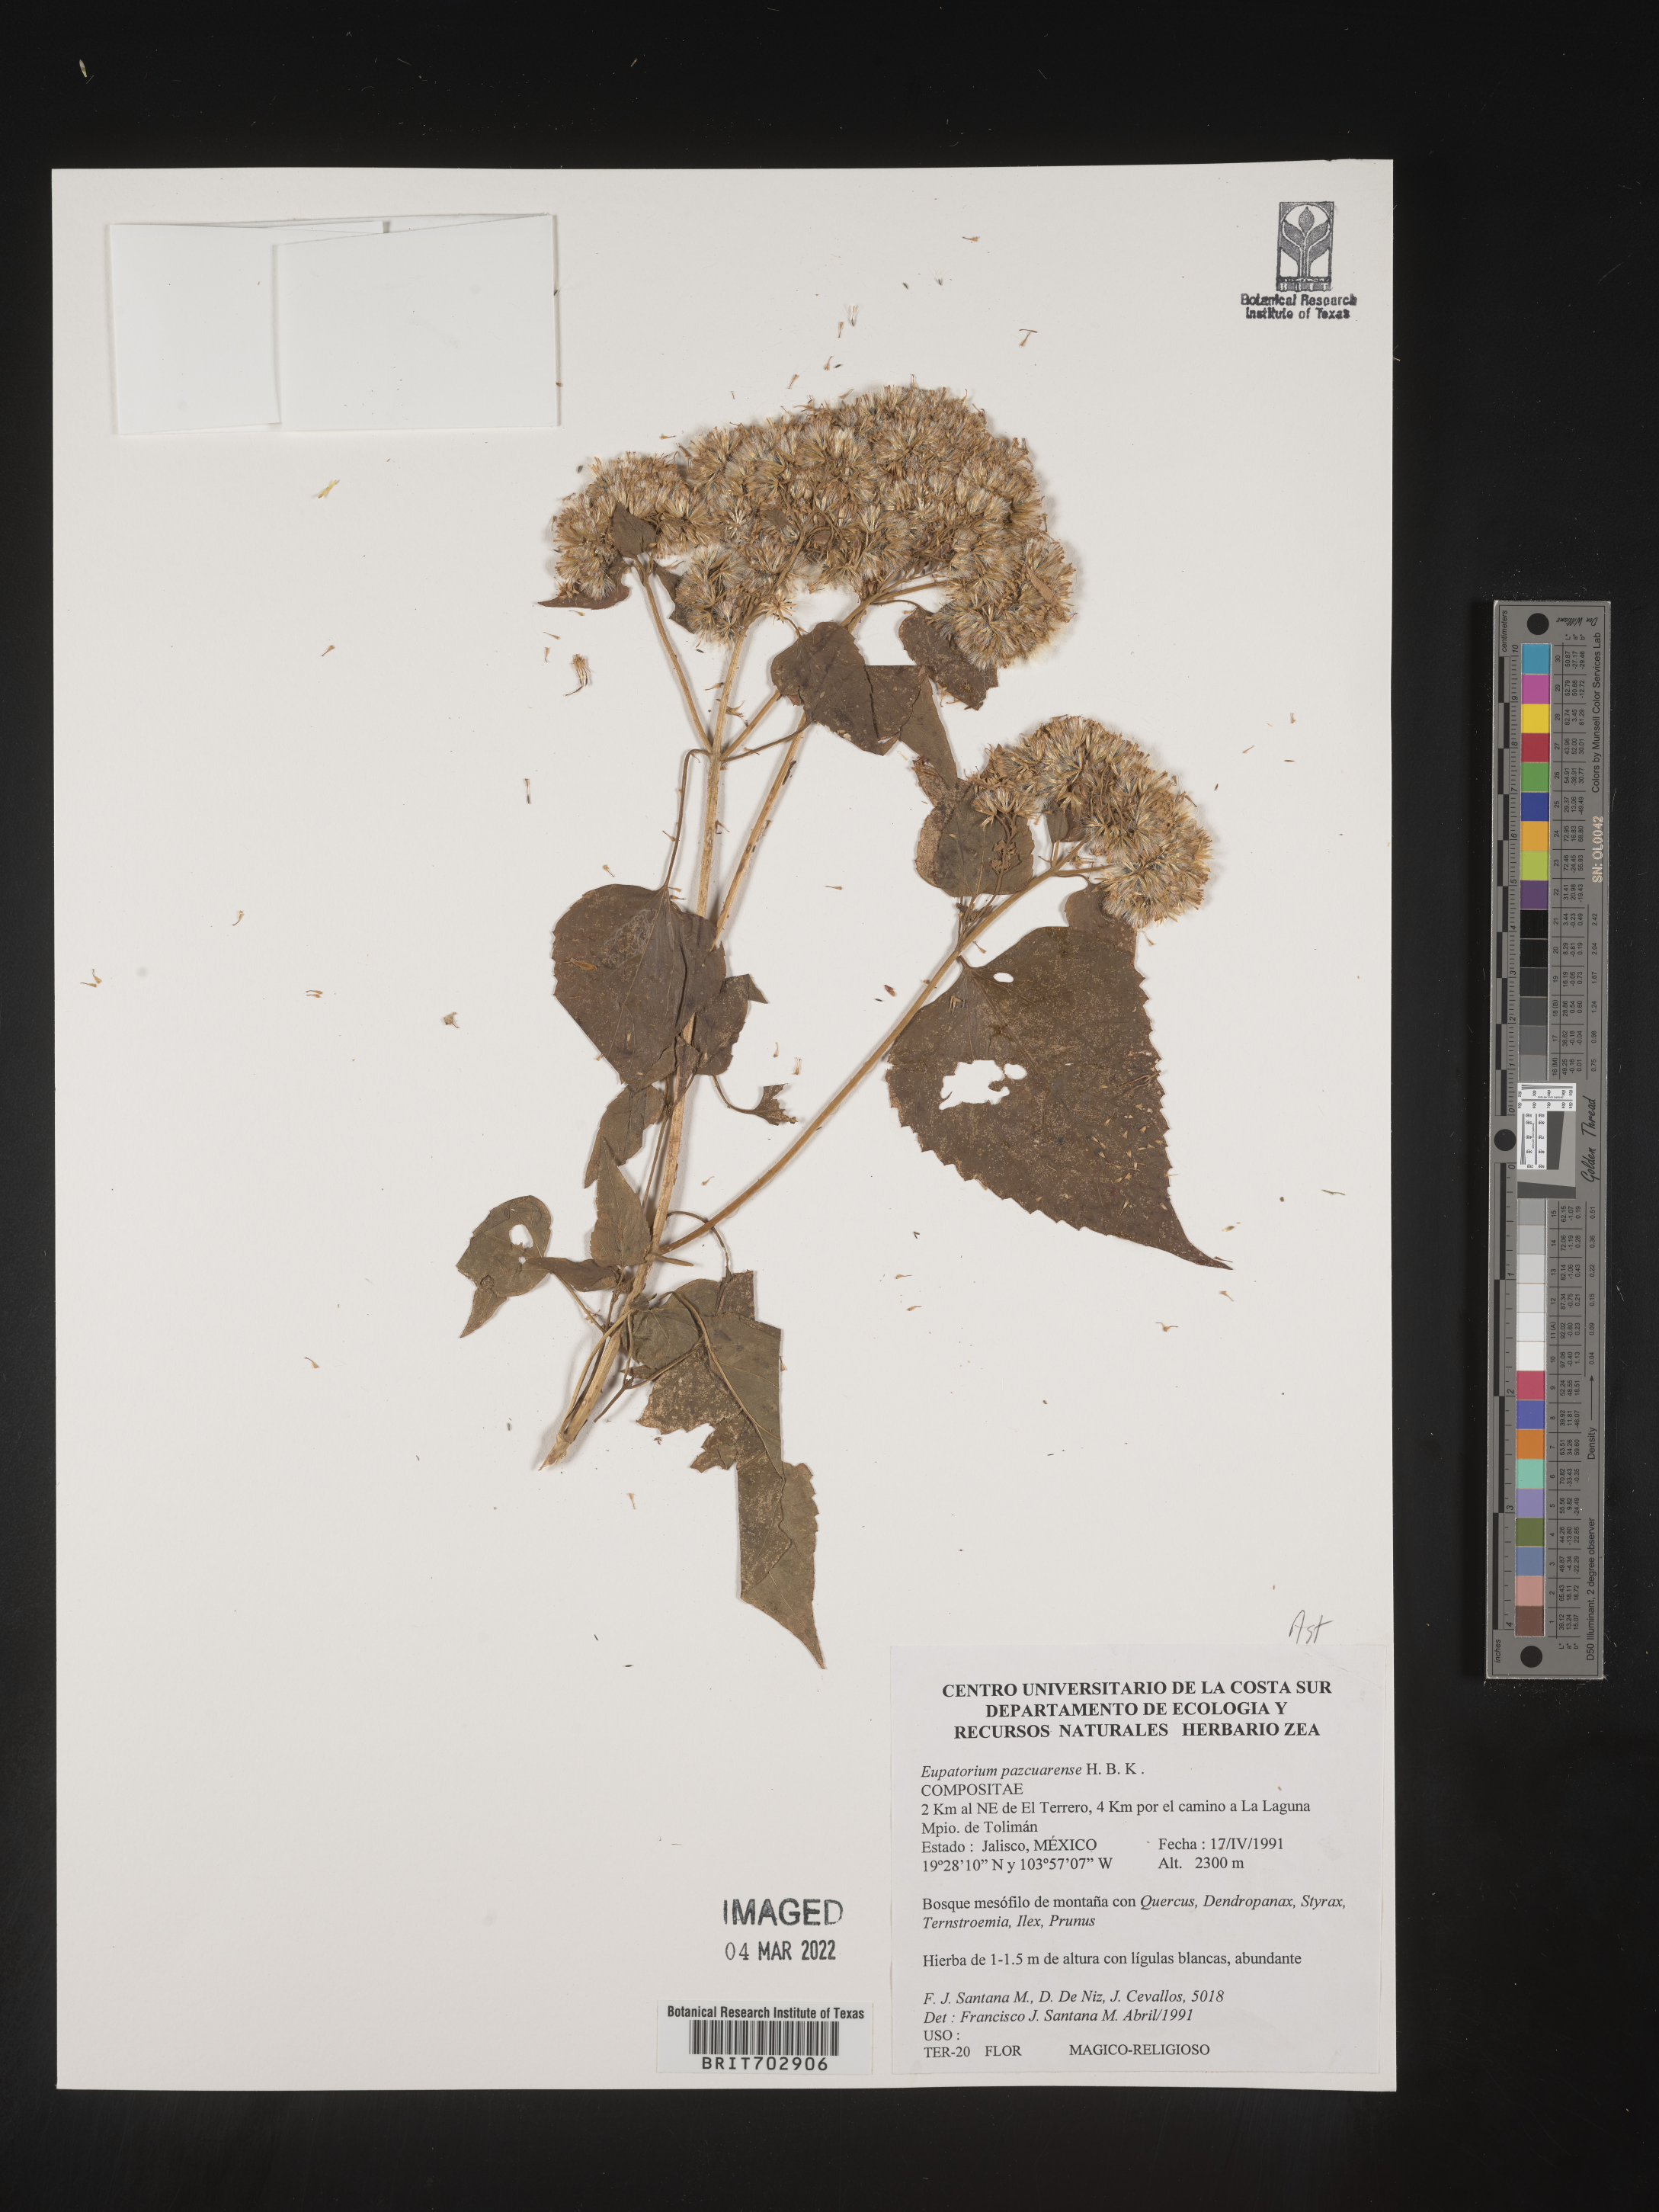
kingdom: Plantae
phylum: Tracheophyta
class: Magnoliopsida
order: Asterales
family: Asteraceae
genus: Eupatorium
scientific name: Eupatorium
